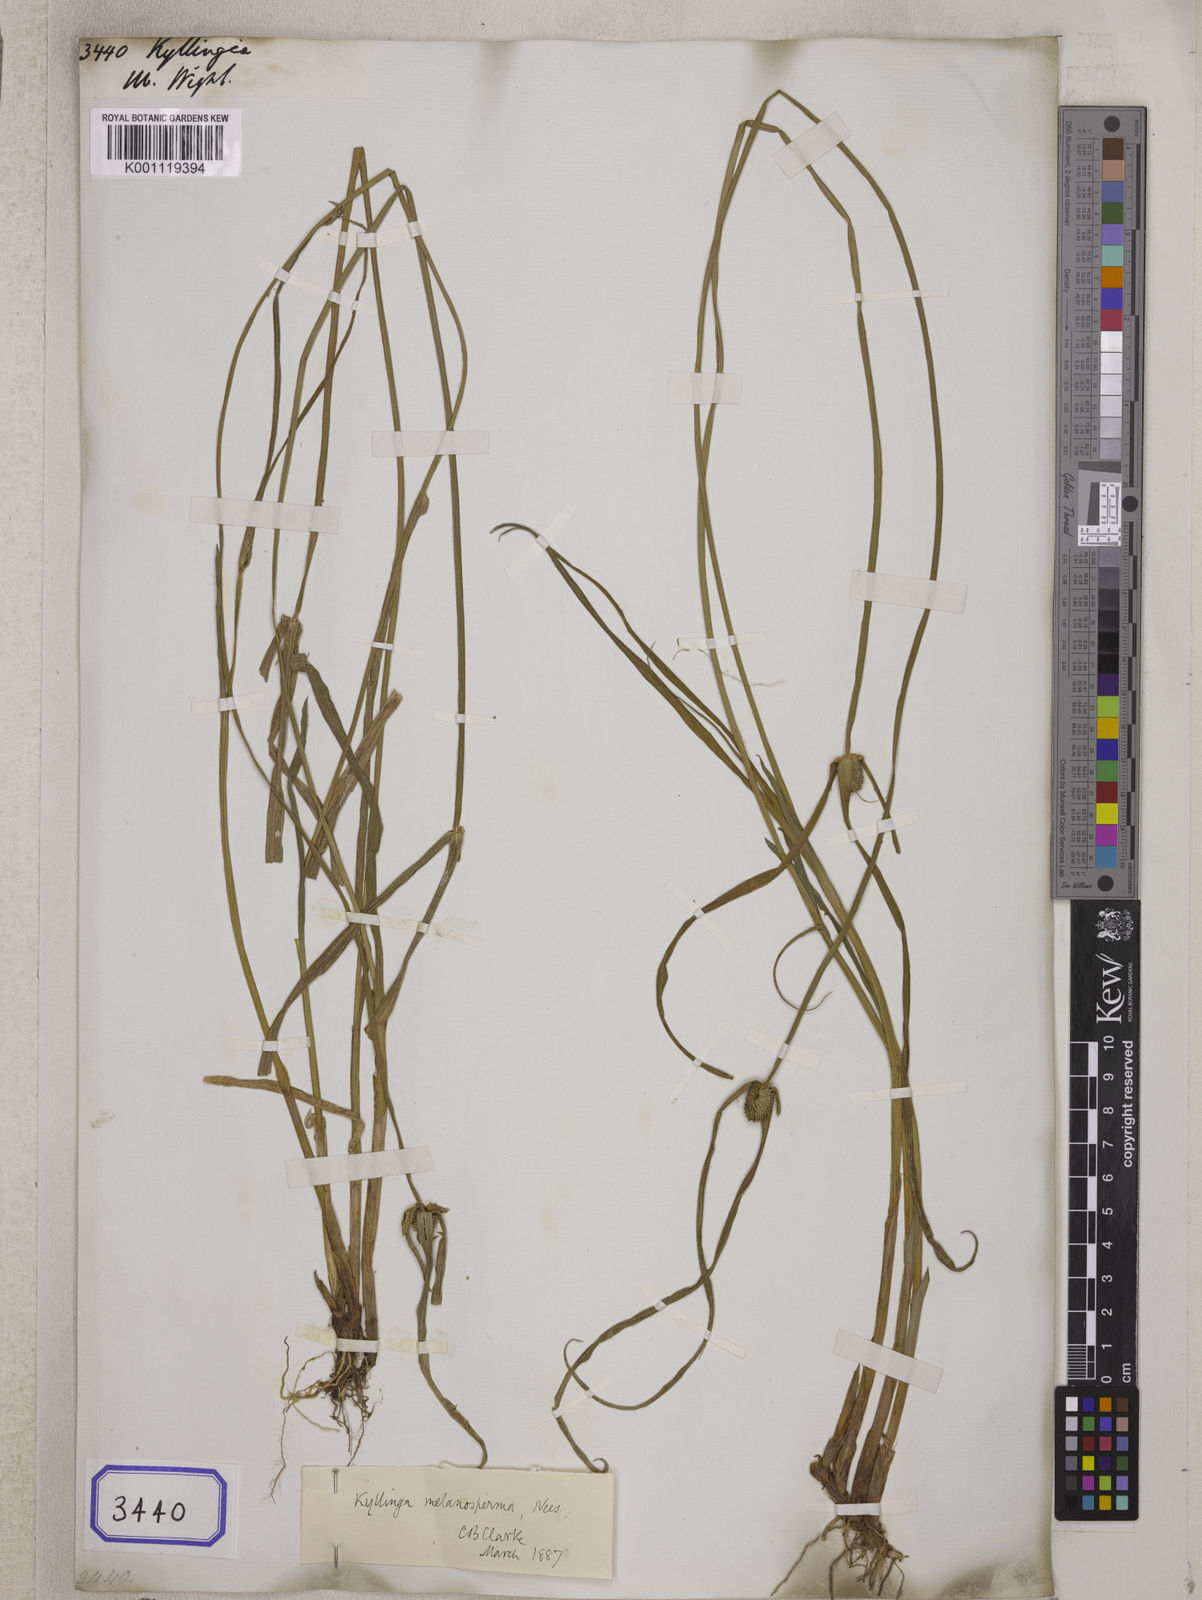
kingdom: Plantae
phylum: Tracheophyta
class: Liliopsida
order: Poales
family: Cyperaceae
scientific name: Cyperaceae
